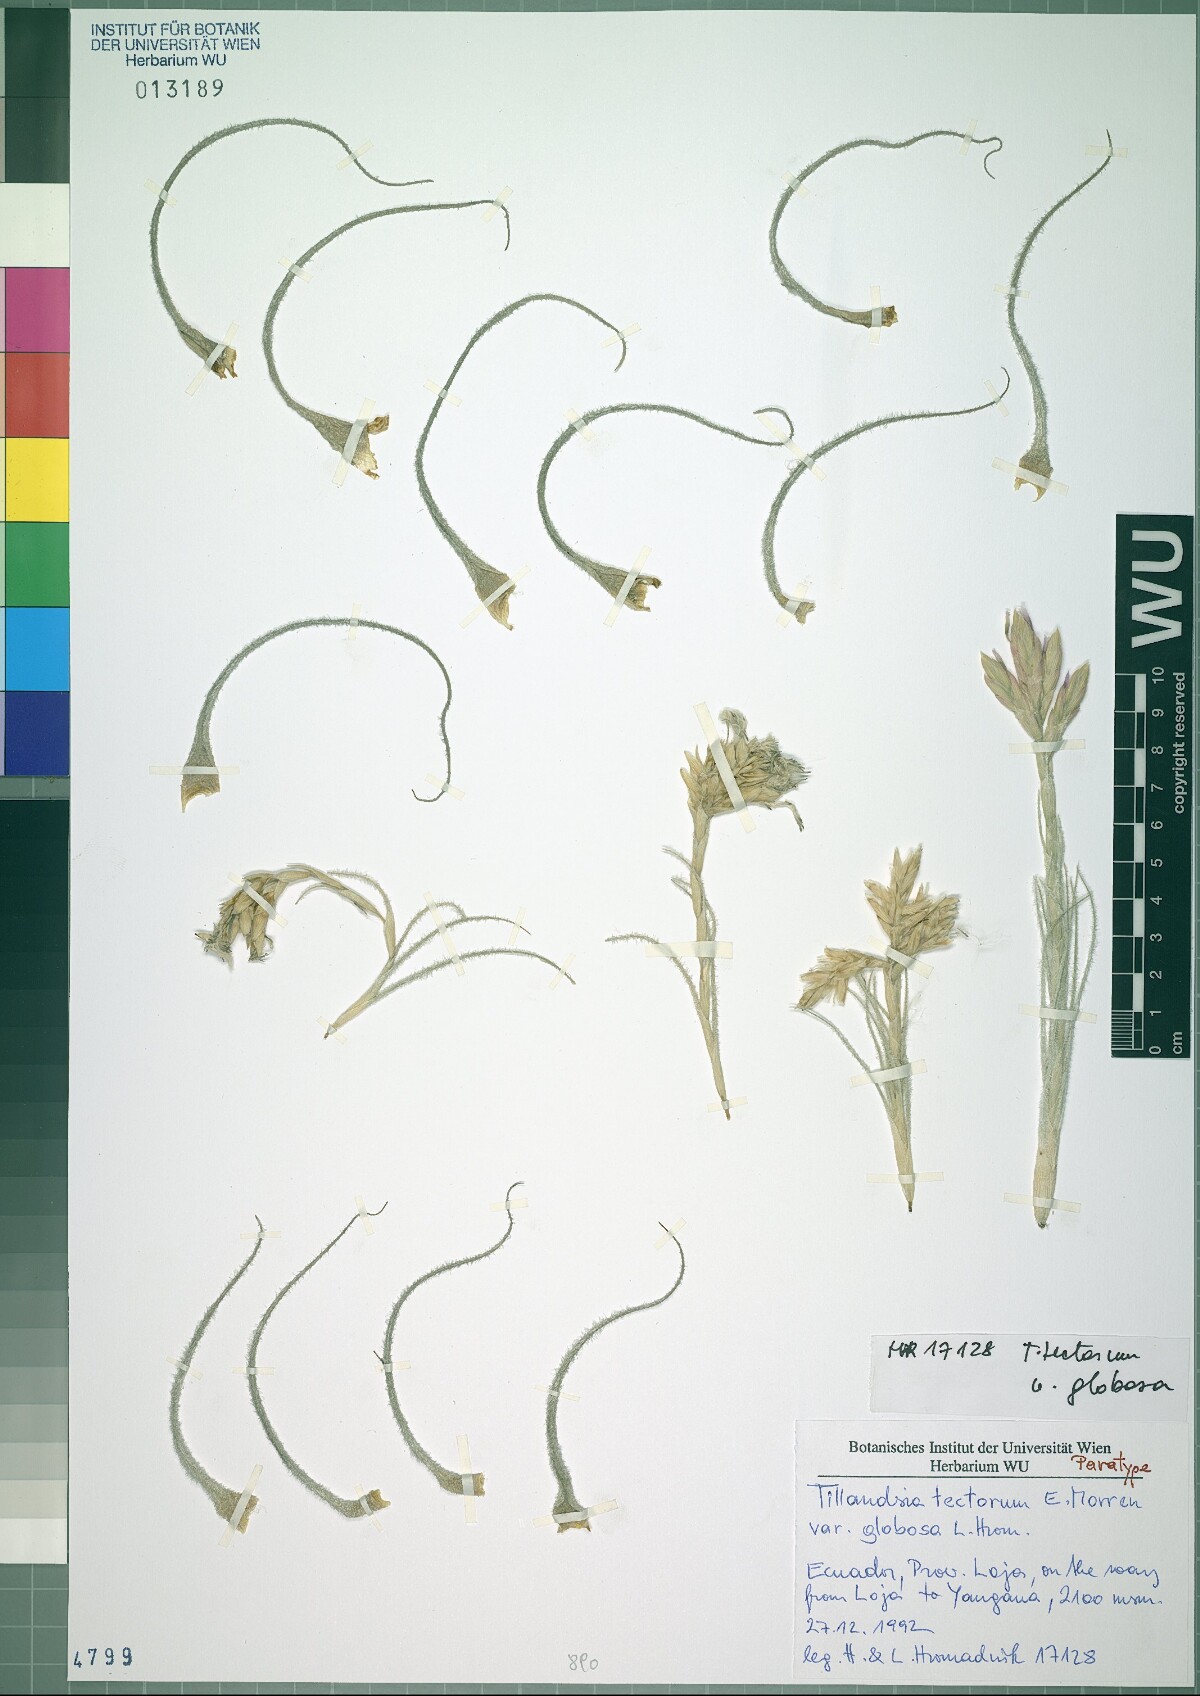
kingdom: Plantae
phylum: Tracheophyta
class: Liliopsida
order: Poales
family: Bromeliaceae
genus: Tillandsia
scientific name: Tillandsia tectorum
